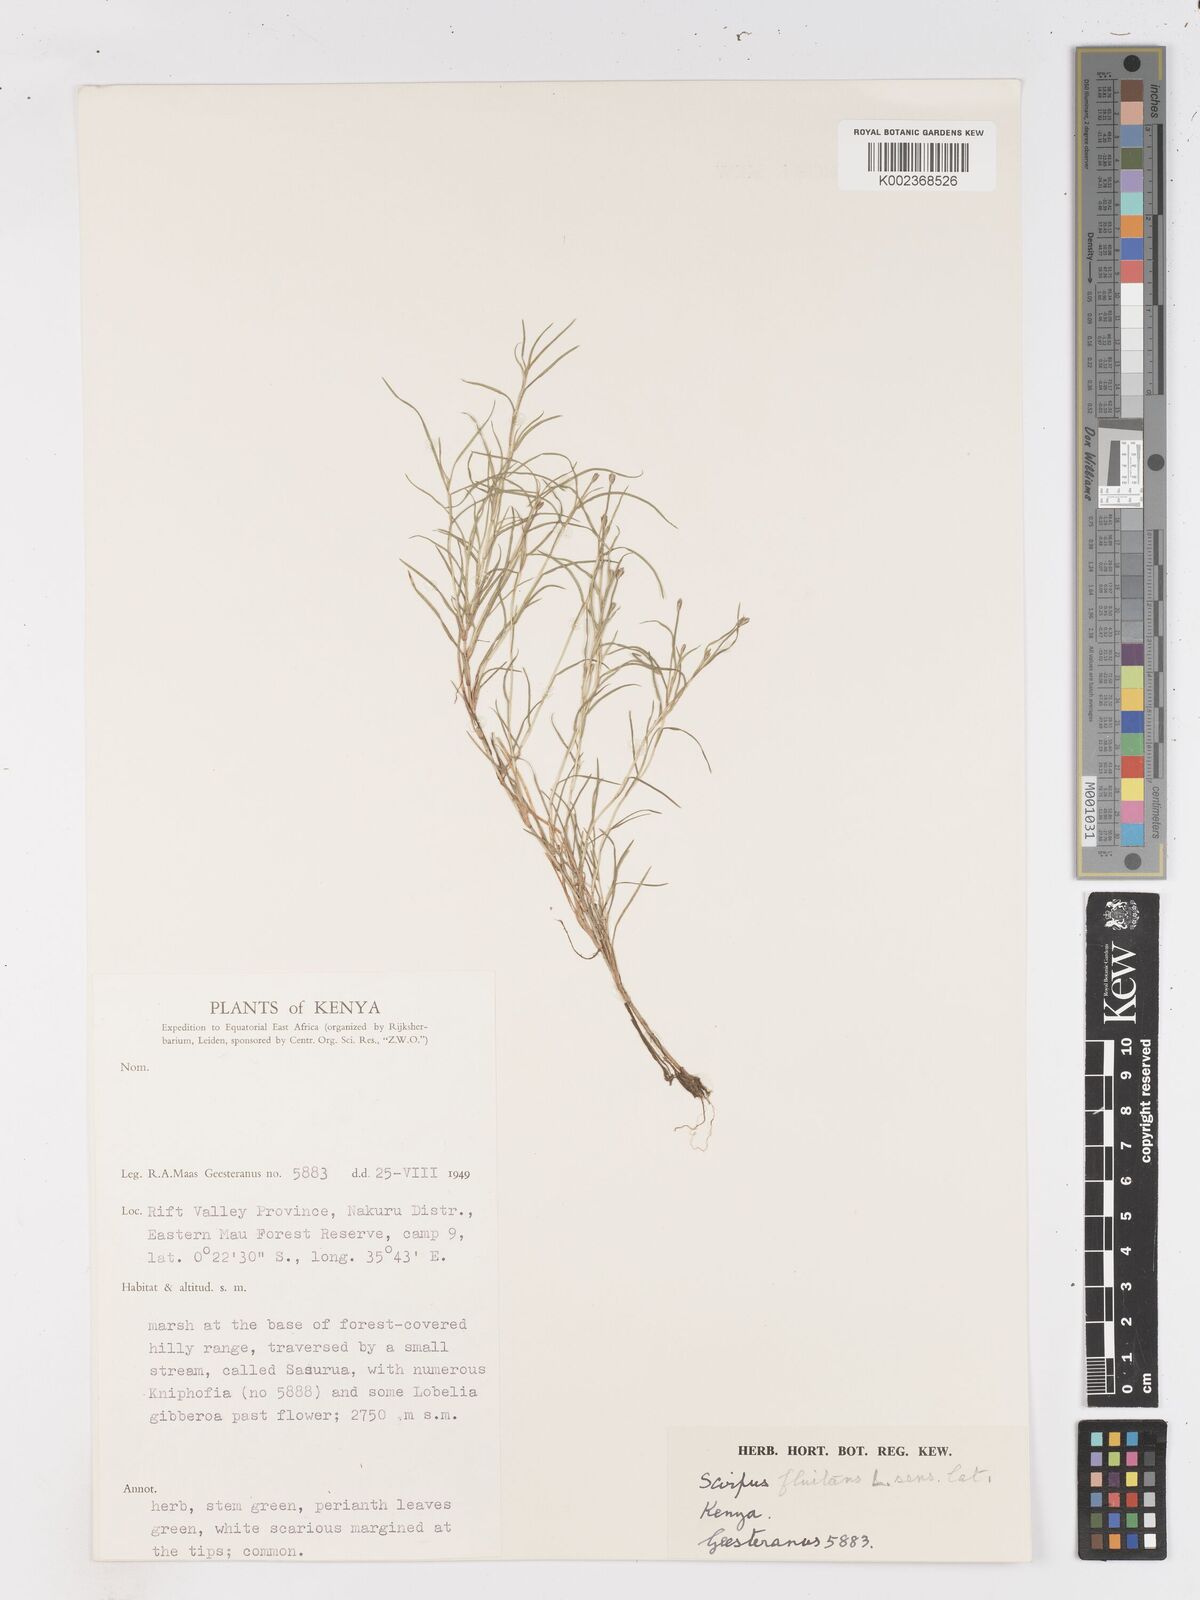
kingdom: Plantae
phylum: Tracheophyta
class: Liliopsida
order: Poales
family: Cyperaceae
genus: Isolepis
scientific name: Isolepis fluitans
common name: Floating club-rush
